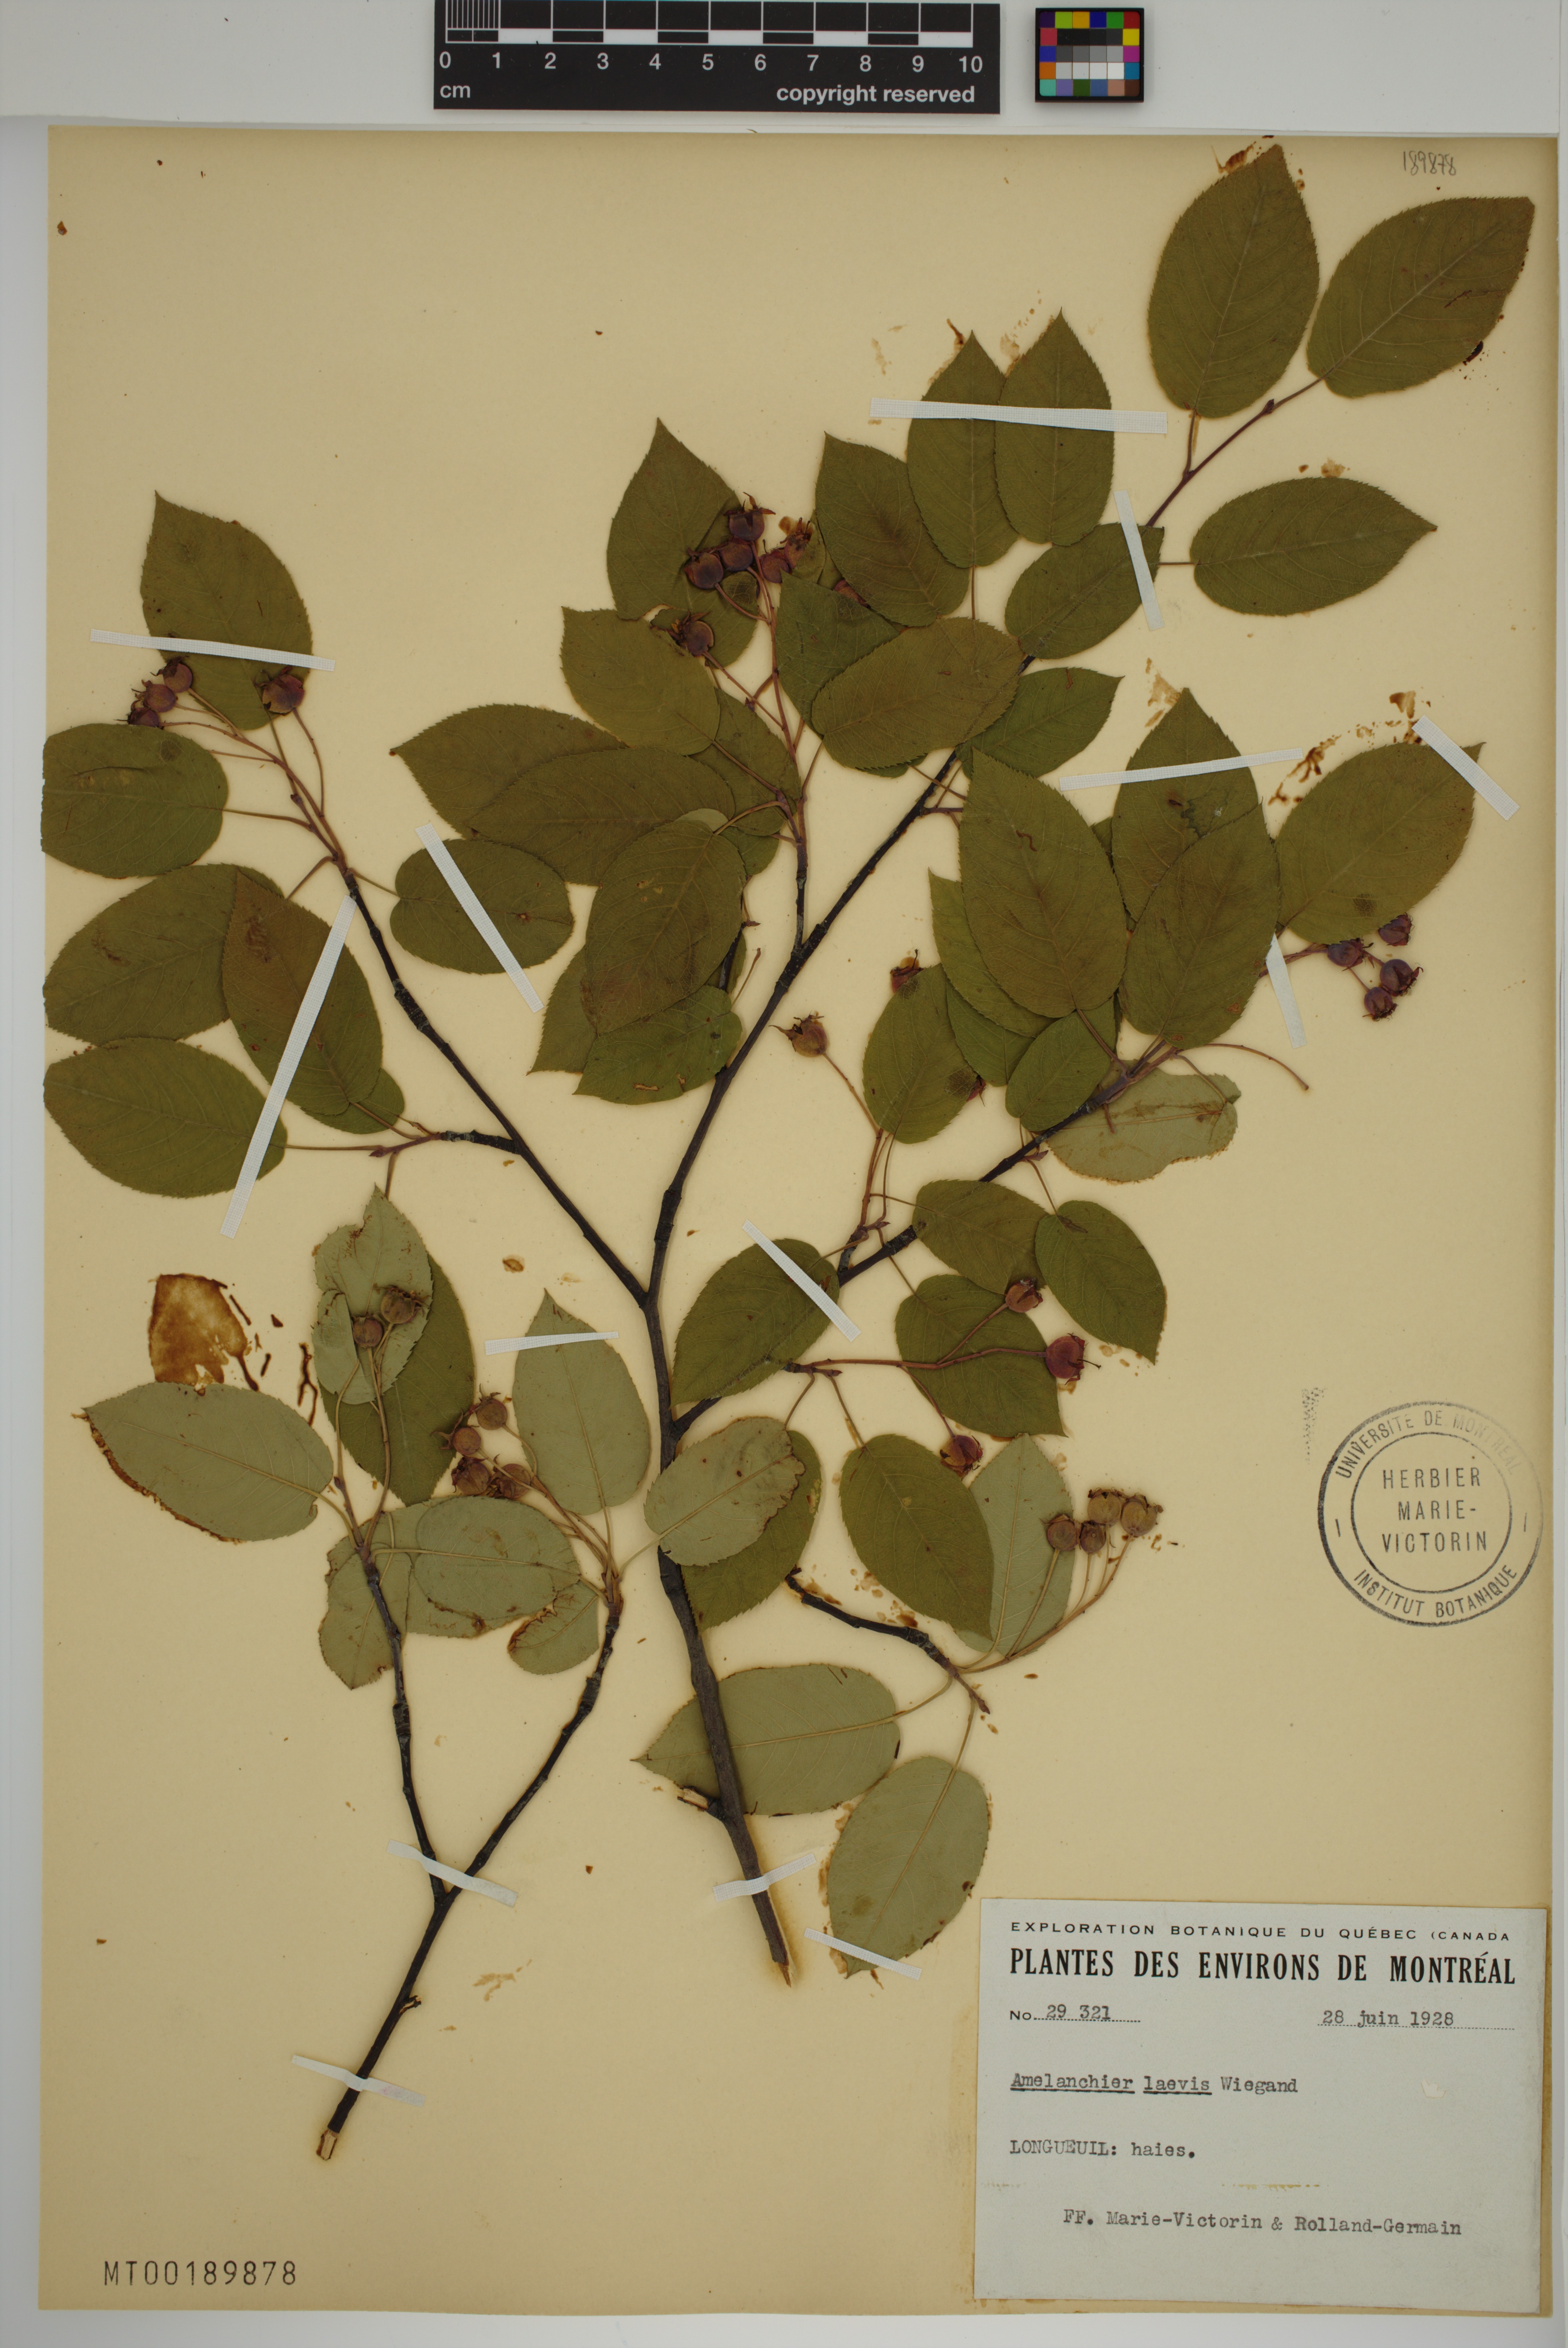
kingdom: Plantae
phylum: Tracheophyta
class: Magnoliopsida
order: Rosales
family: Rosaceae
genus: Amelanchier
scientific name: Amelanchier laevis
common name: Allegheny serviceberry
